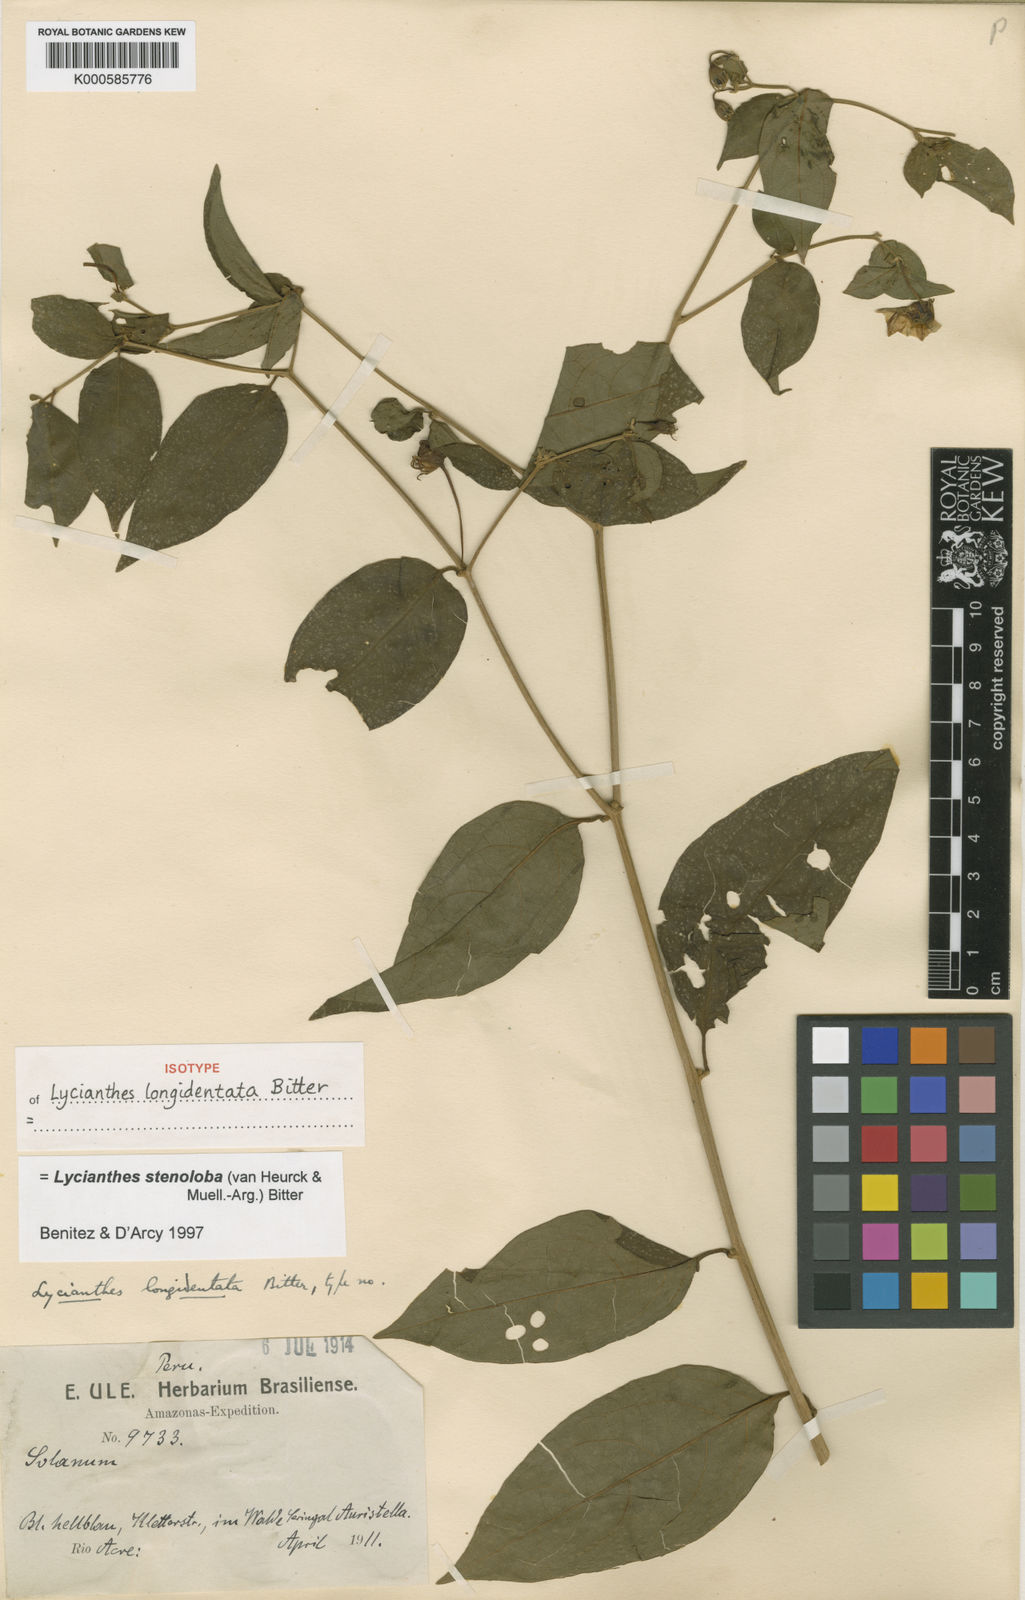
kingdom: Plantae
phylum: Tracheophyta
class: Magnoliopsida
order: Solanales
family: Solanaceae
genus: Lycianthes
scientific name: Lycianthes
